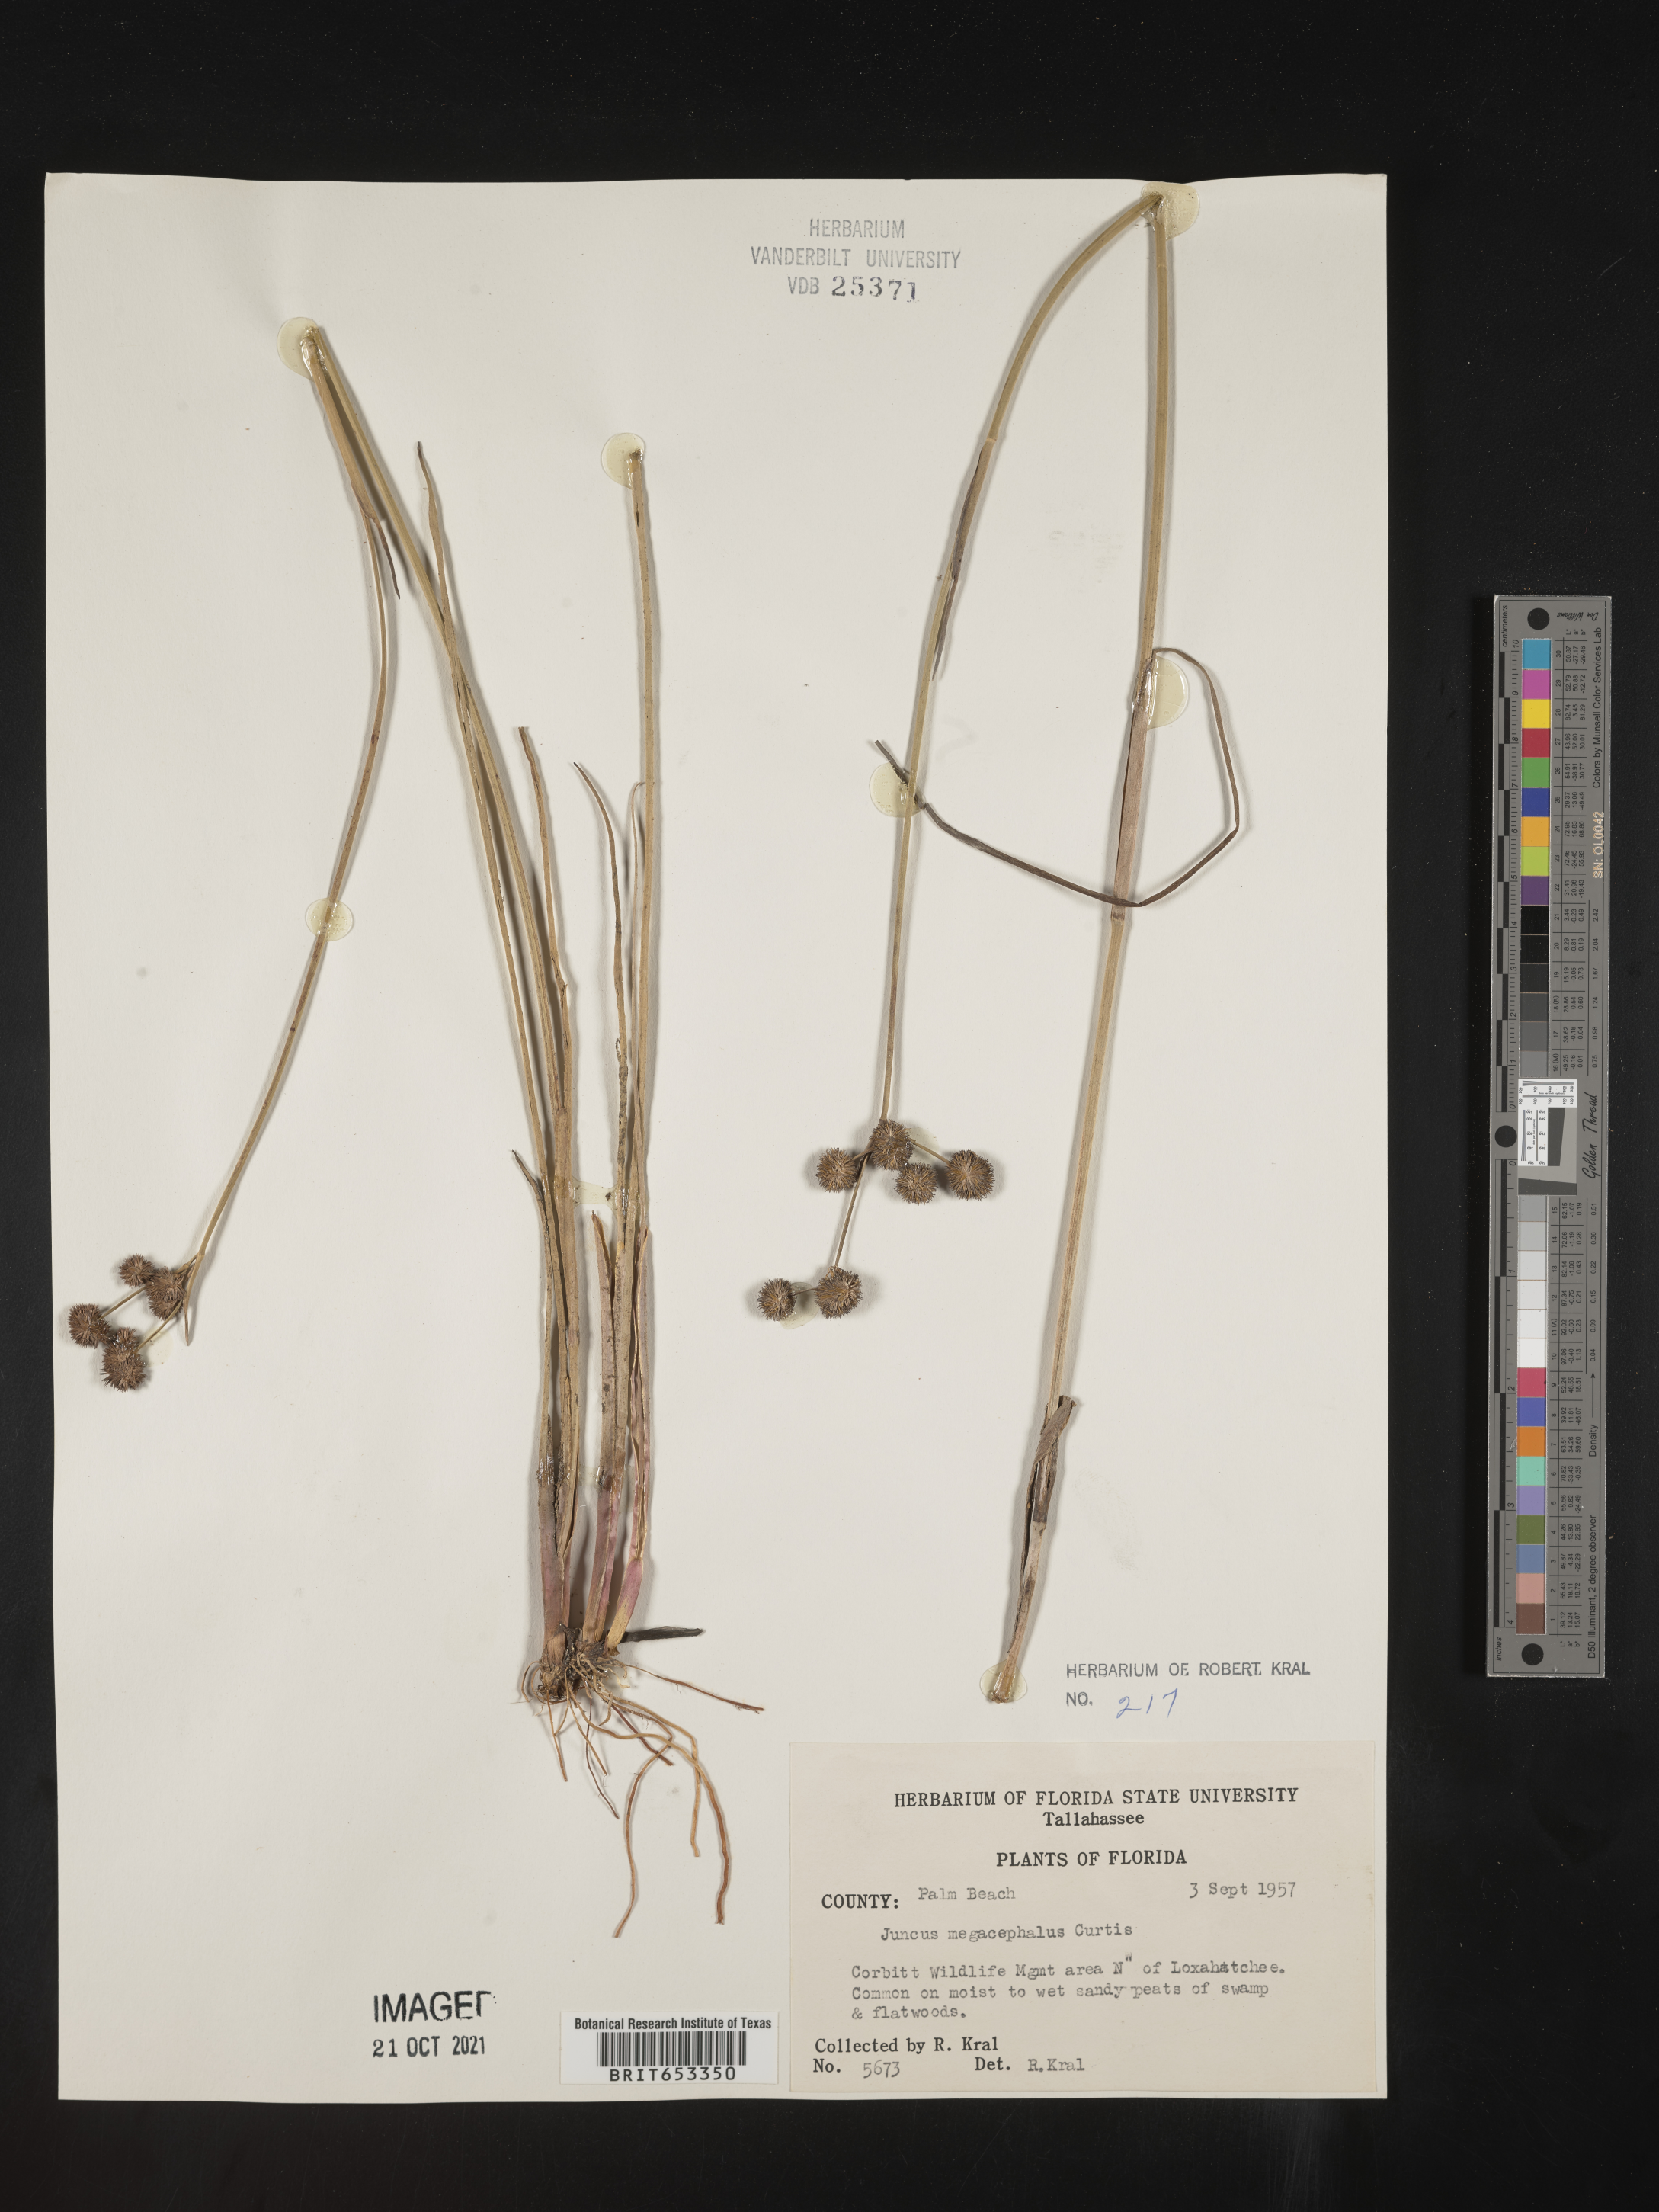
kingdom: Plantae
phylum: Tracheophyta
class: Liliopsida
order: Poales
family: Juncaceae
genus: Juncus
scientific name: Juncus megacephalus
